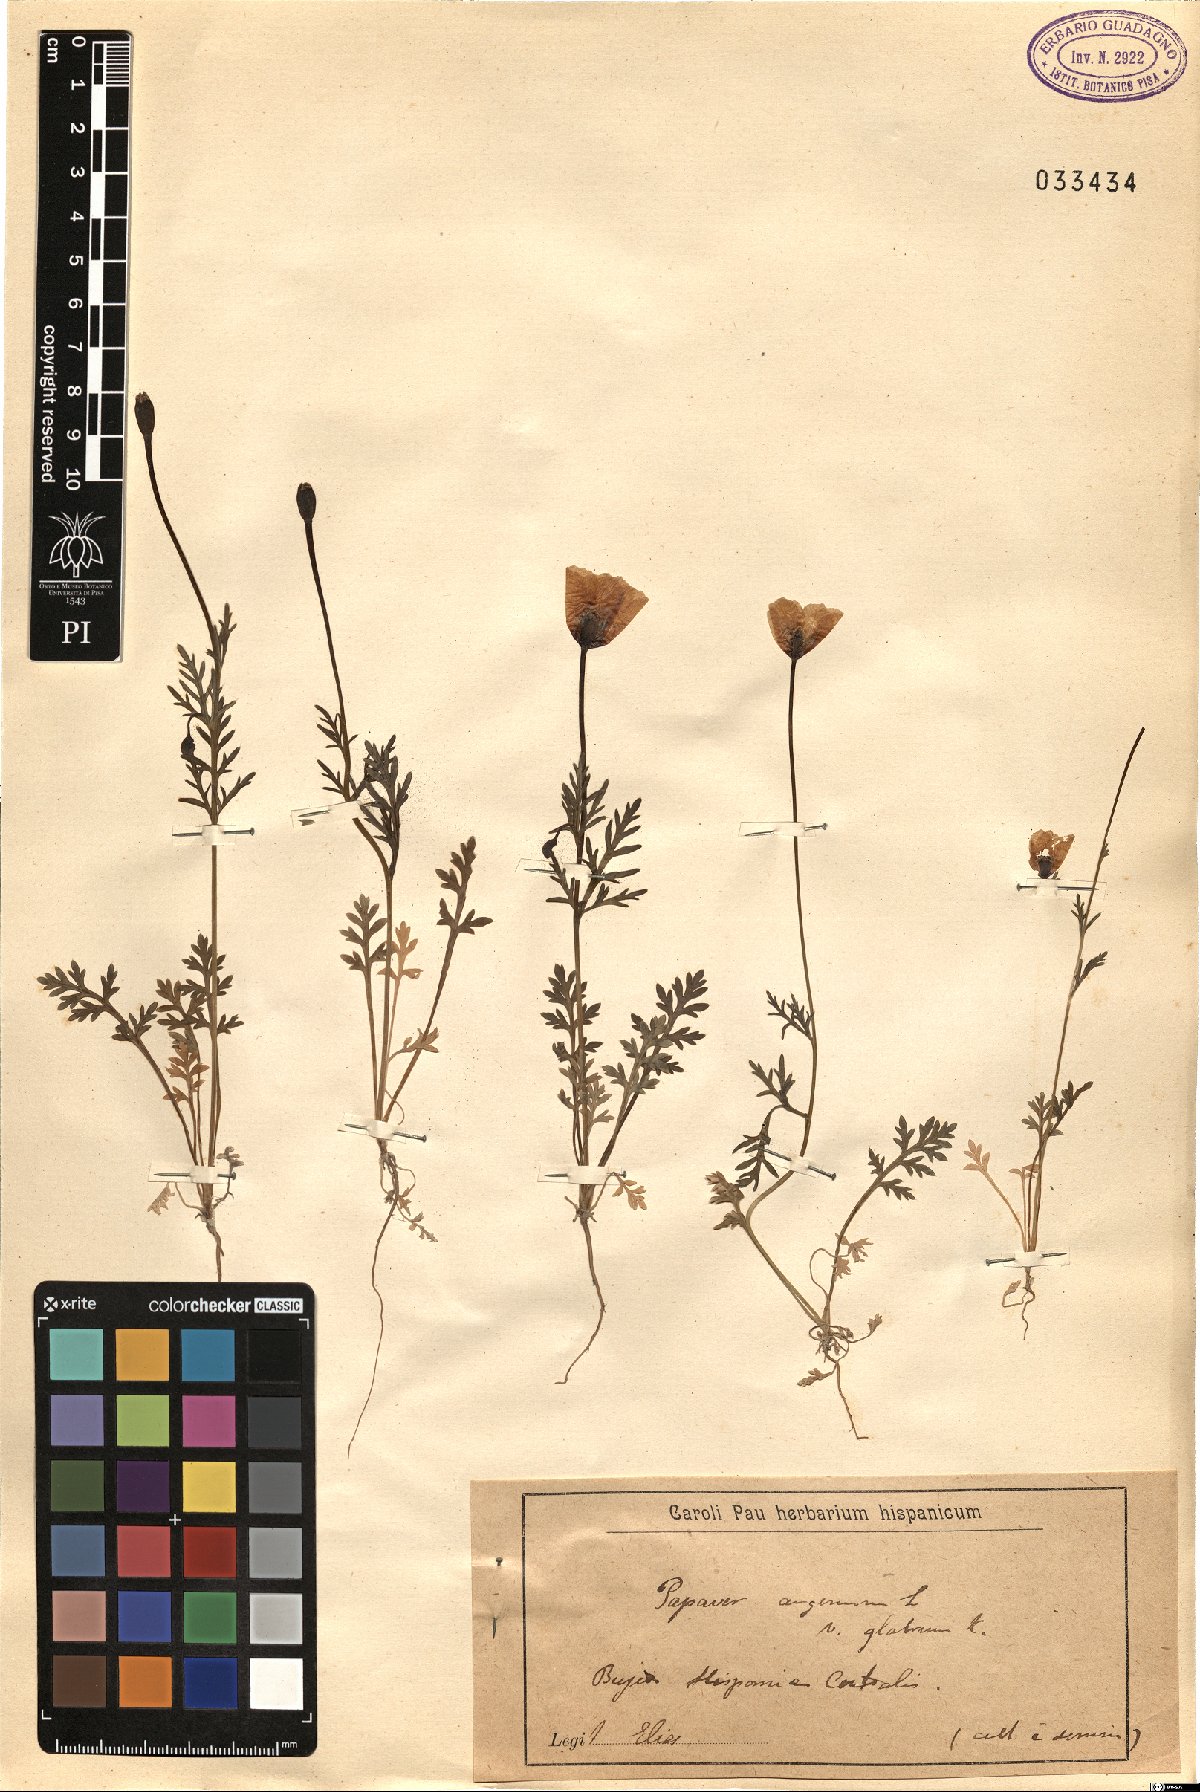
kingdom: Plantae
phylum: Tracheophyta
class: Magnoliopsida
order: Ranunculales
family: Papaveraceae
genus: Roemeria
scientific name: Roemeria argemone
